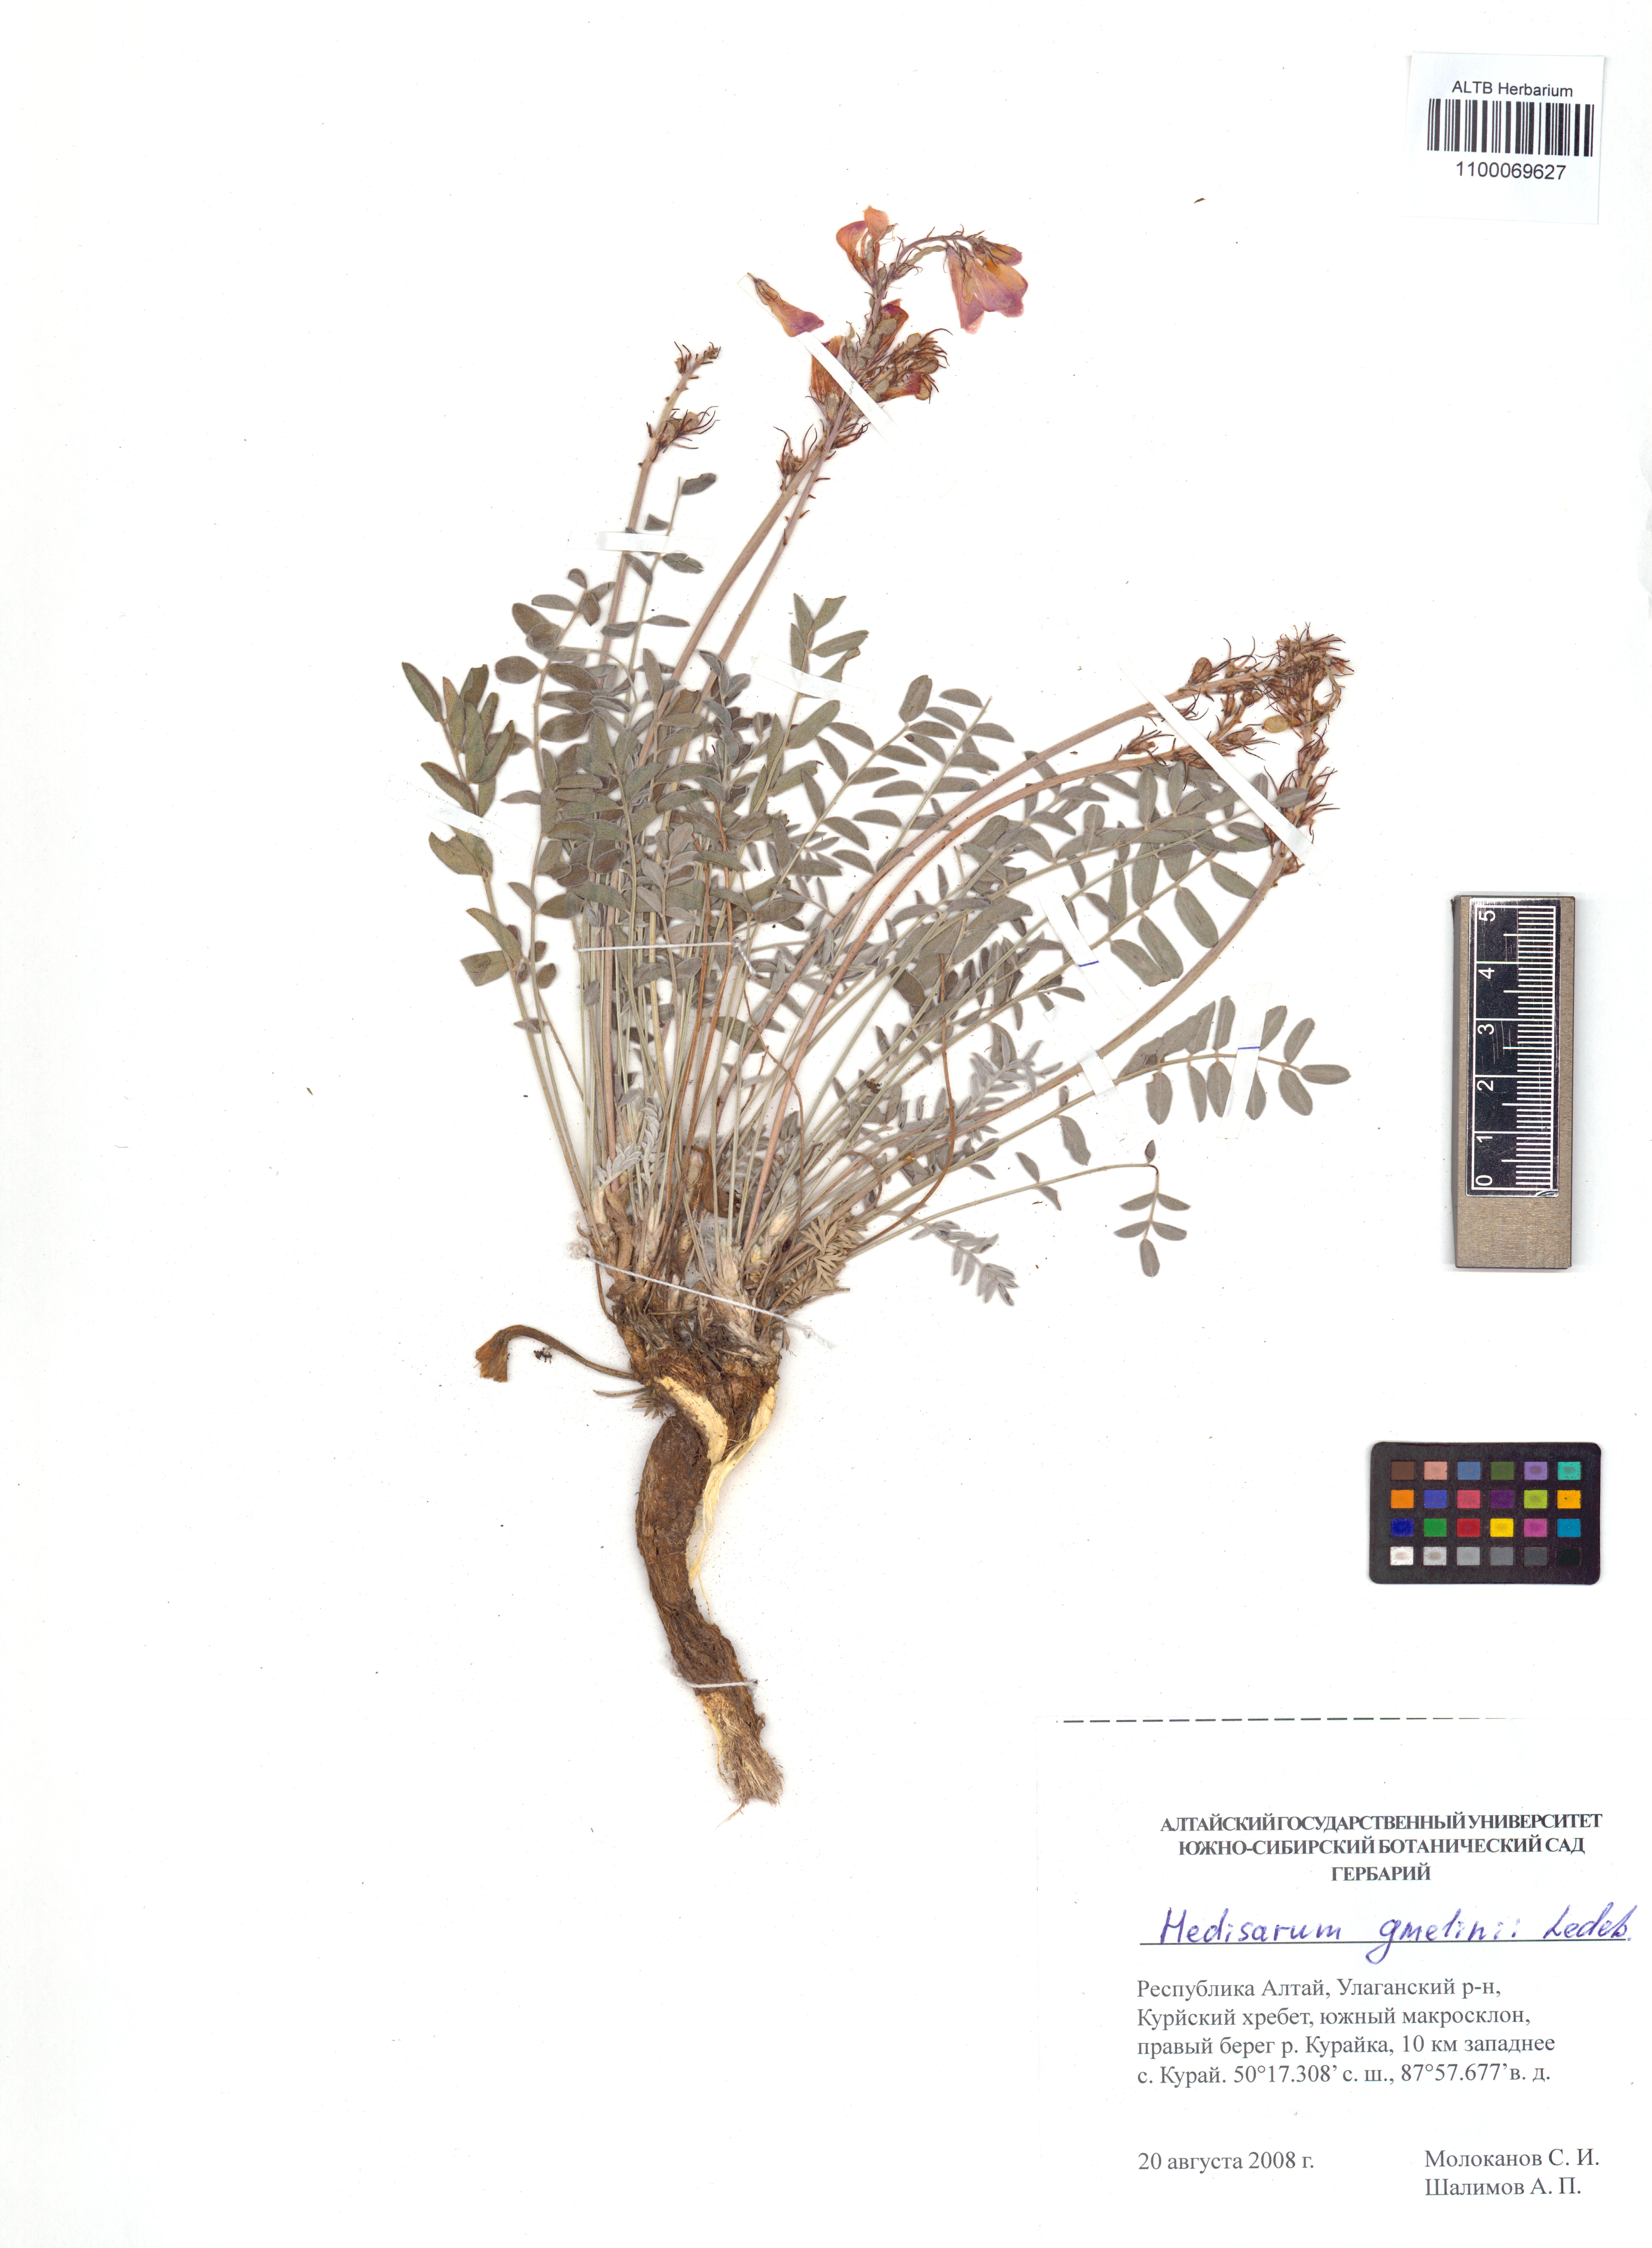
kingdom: Plantae
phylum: Tracheophyta
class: Magnoliopsida
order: Fabales
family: Fabaceae
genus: Hedysarum
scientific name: Hedysarum gmelinii
